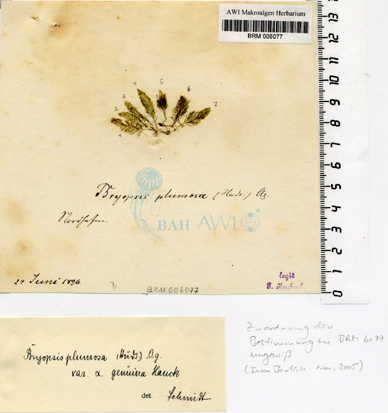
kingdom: Plantae
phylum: Chlorophyta
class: Ulvophyceae
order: Bryopsidales
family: Bryopsidaceae
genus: Bryopsis
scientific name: Bryopsis plumosa
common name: Hen pen
